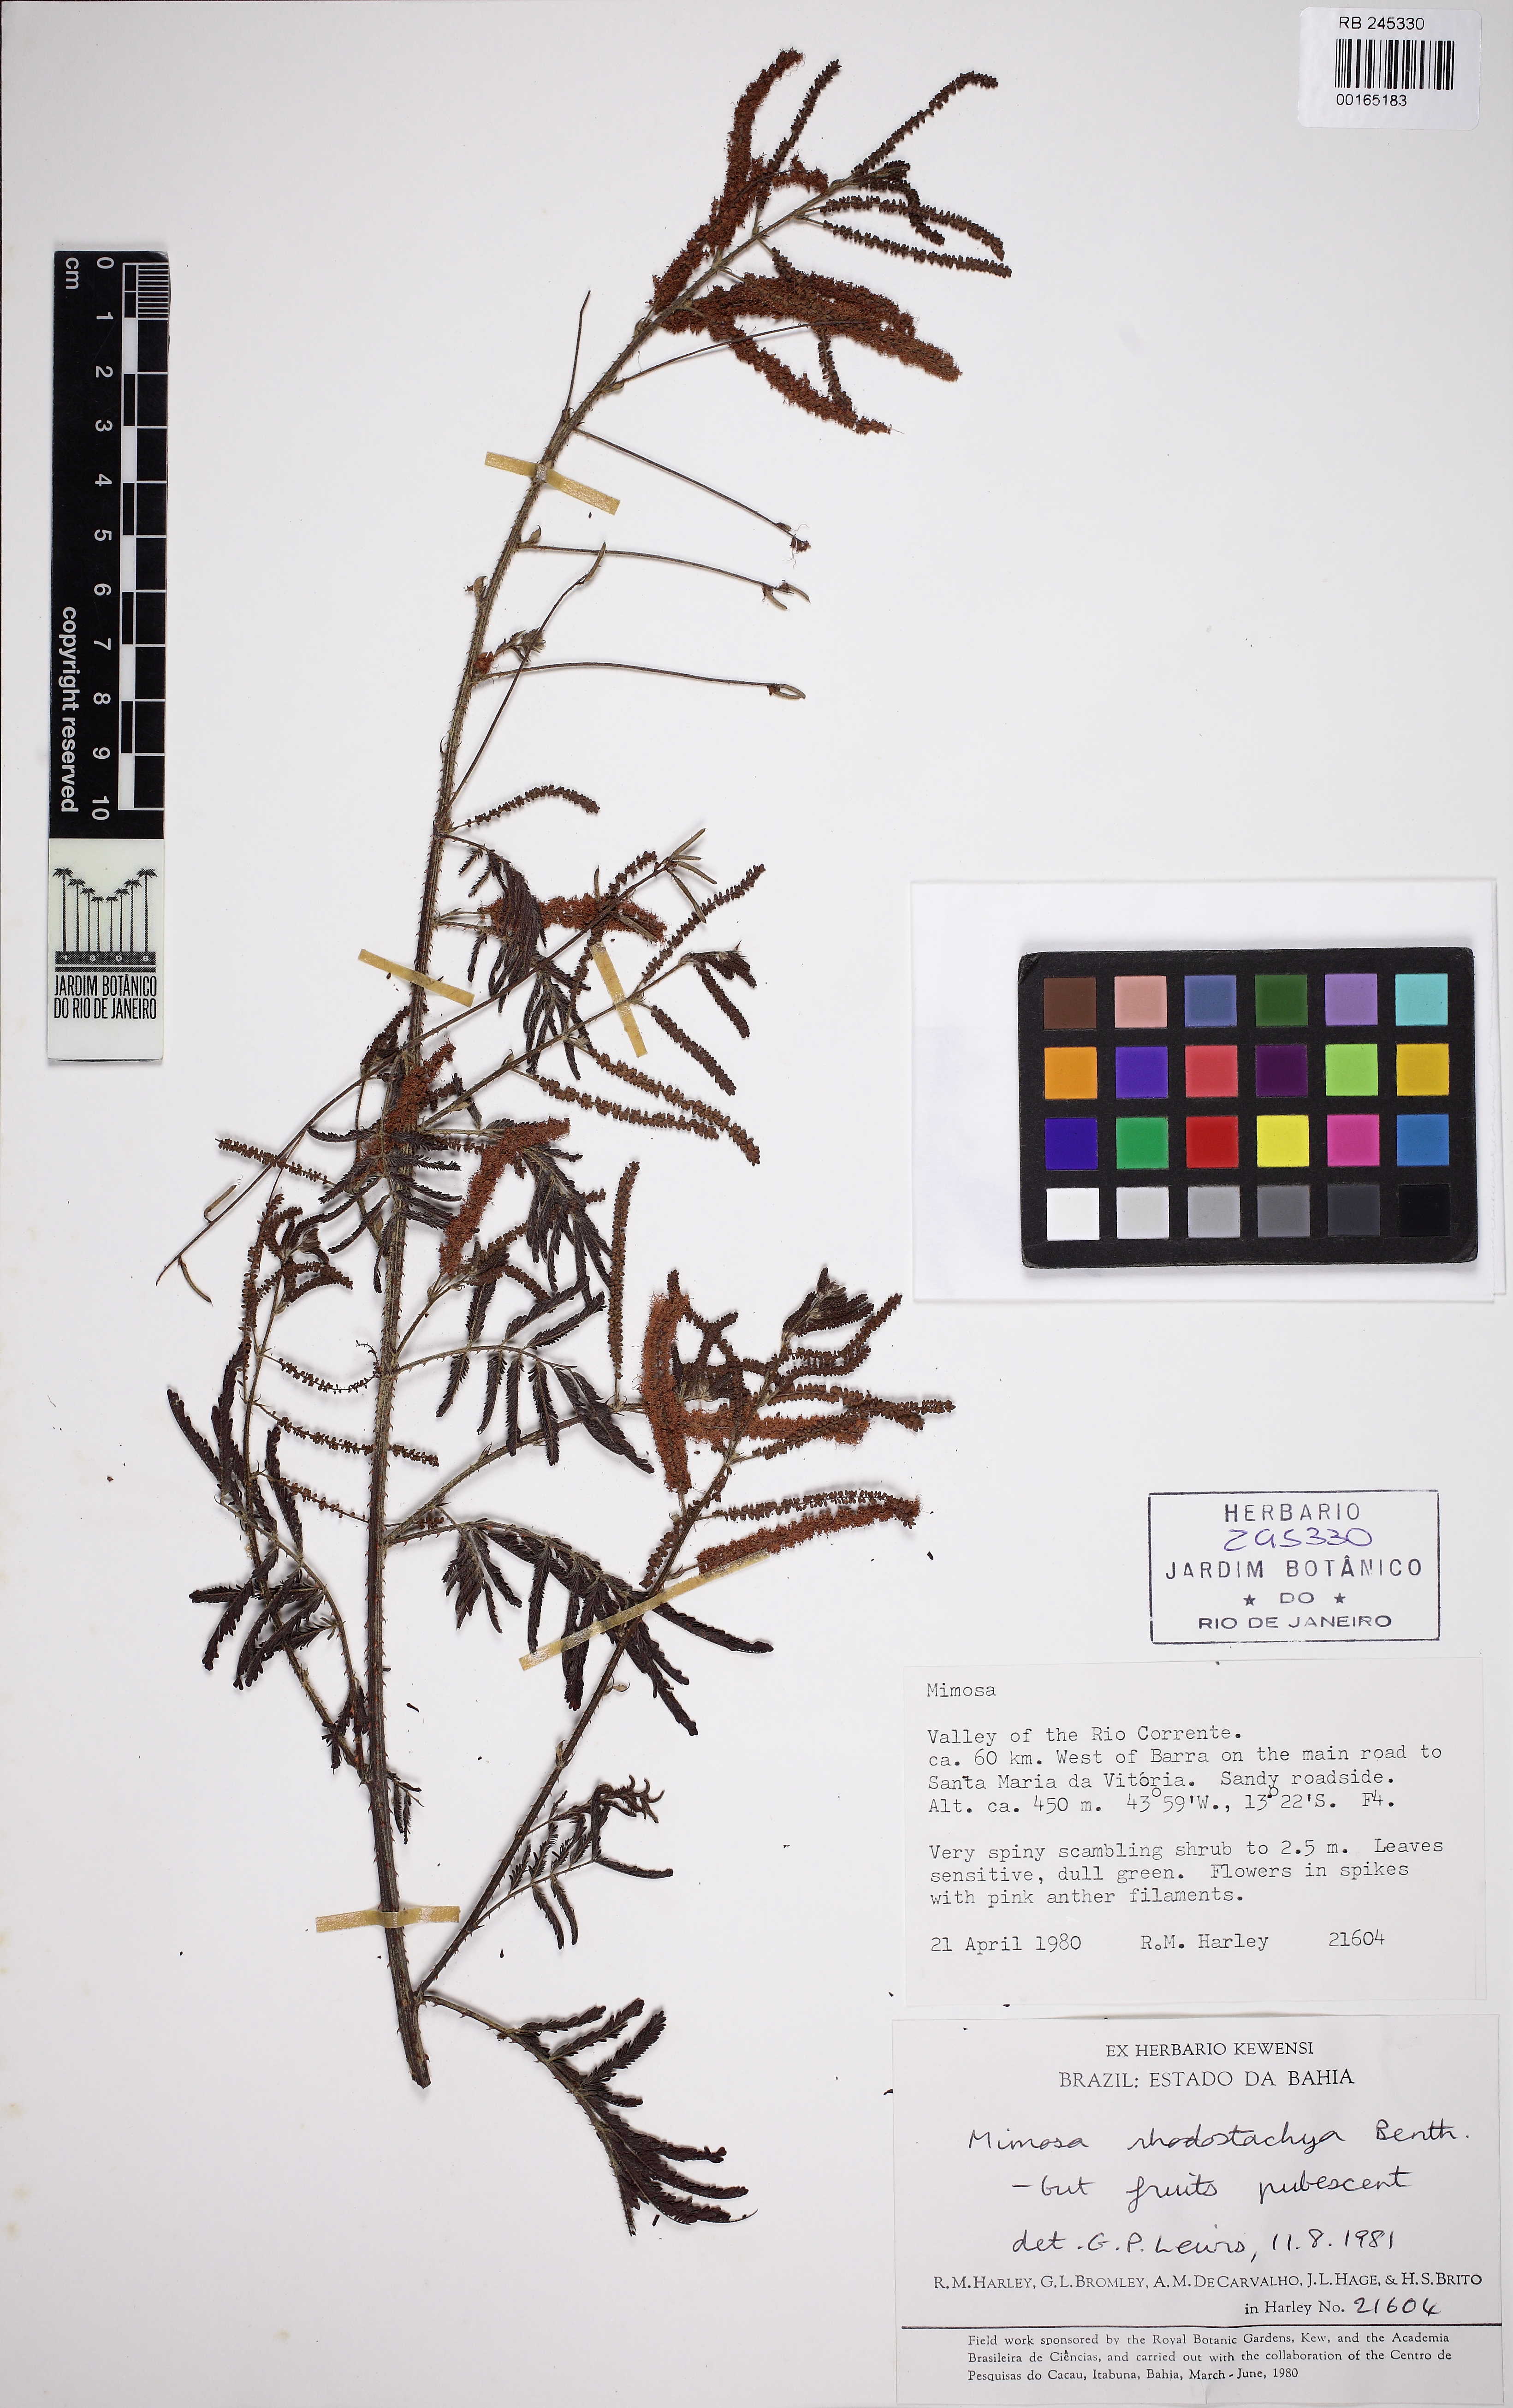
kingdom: Plantae
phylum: Tracheophyta
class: Magnoliopsida
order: Fabales
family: Fabaceae
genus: Mimosa
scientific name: Mimosa invisa
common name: Creeping sensitive-plant
